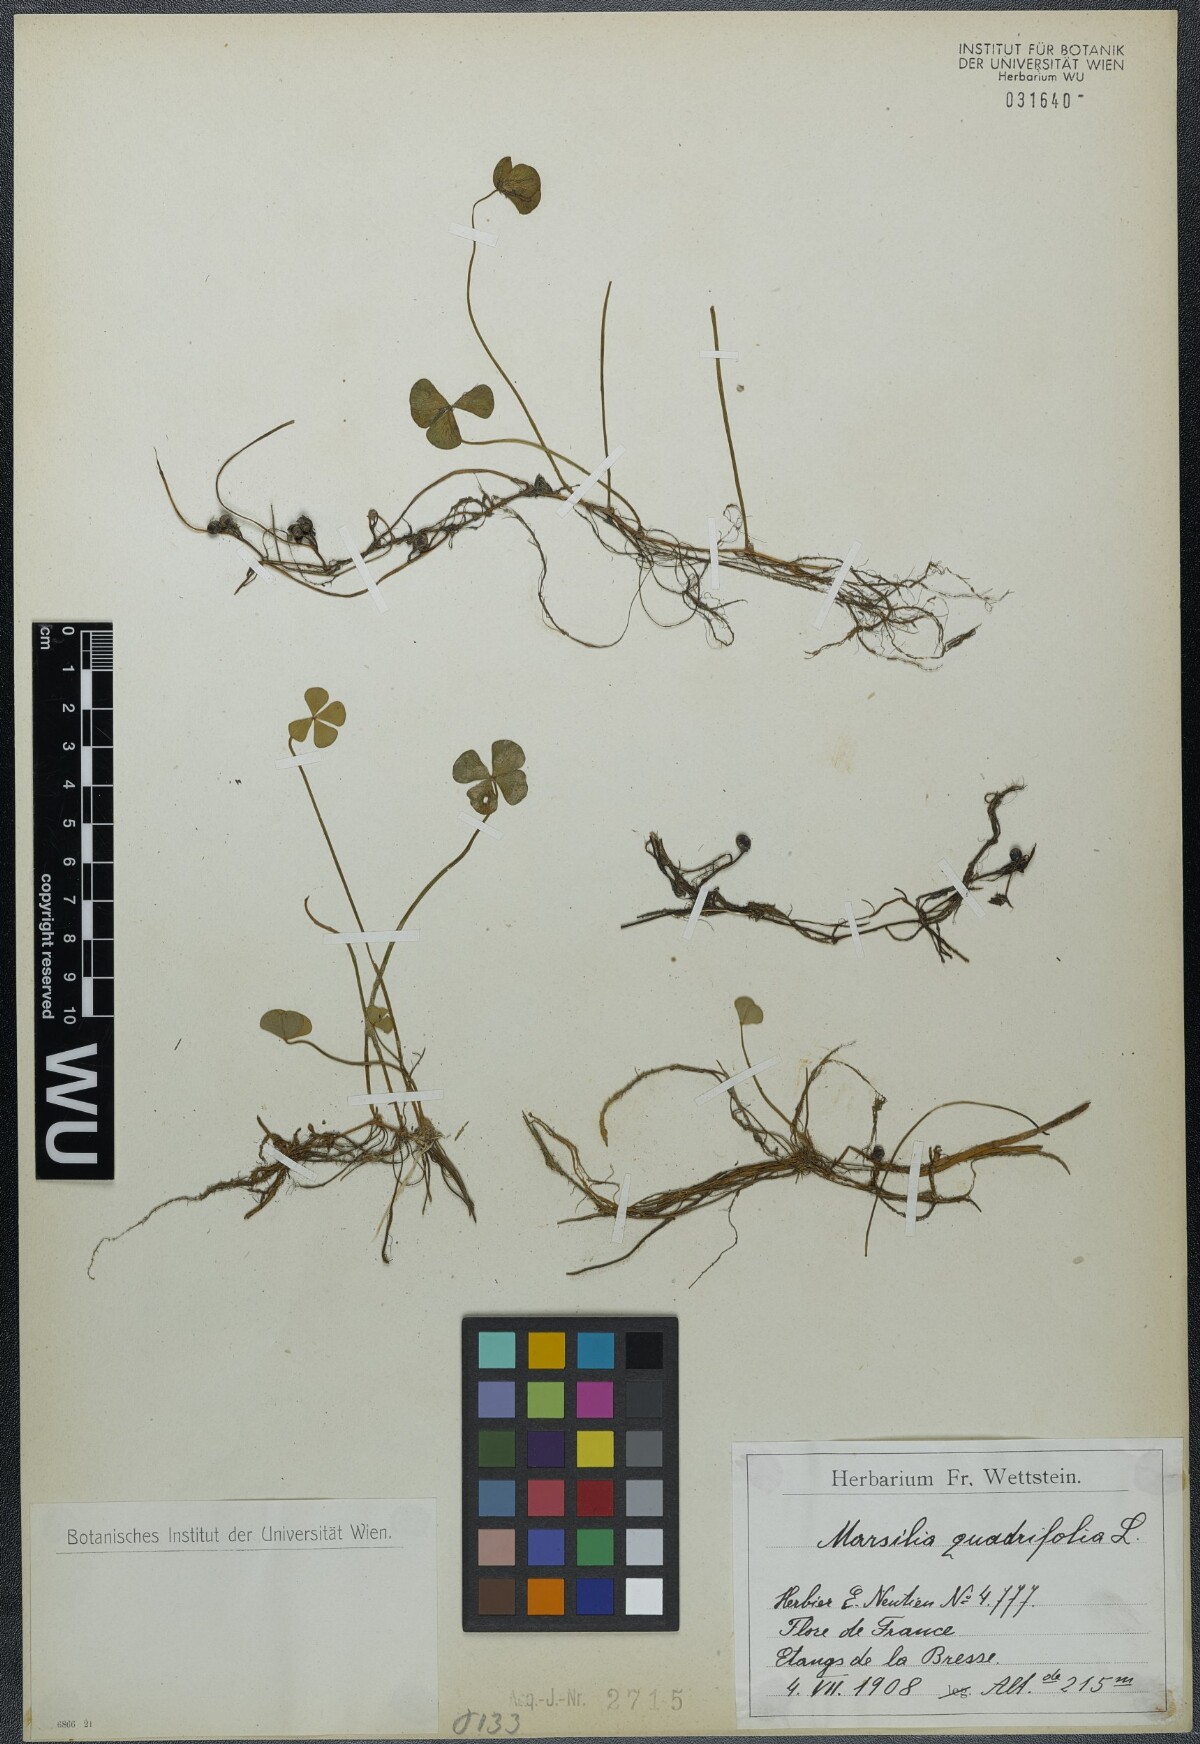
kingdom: Plantae
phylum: Tracheophyta
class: Polypodiopsida
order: Salviniales
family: Marsileaceae
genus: Marsilea
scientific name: Marsilea quadrifolia
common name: Water shamrock
